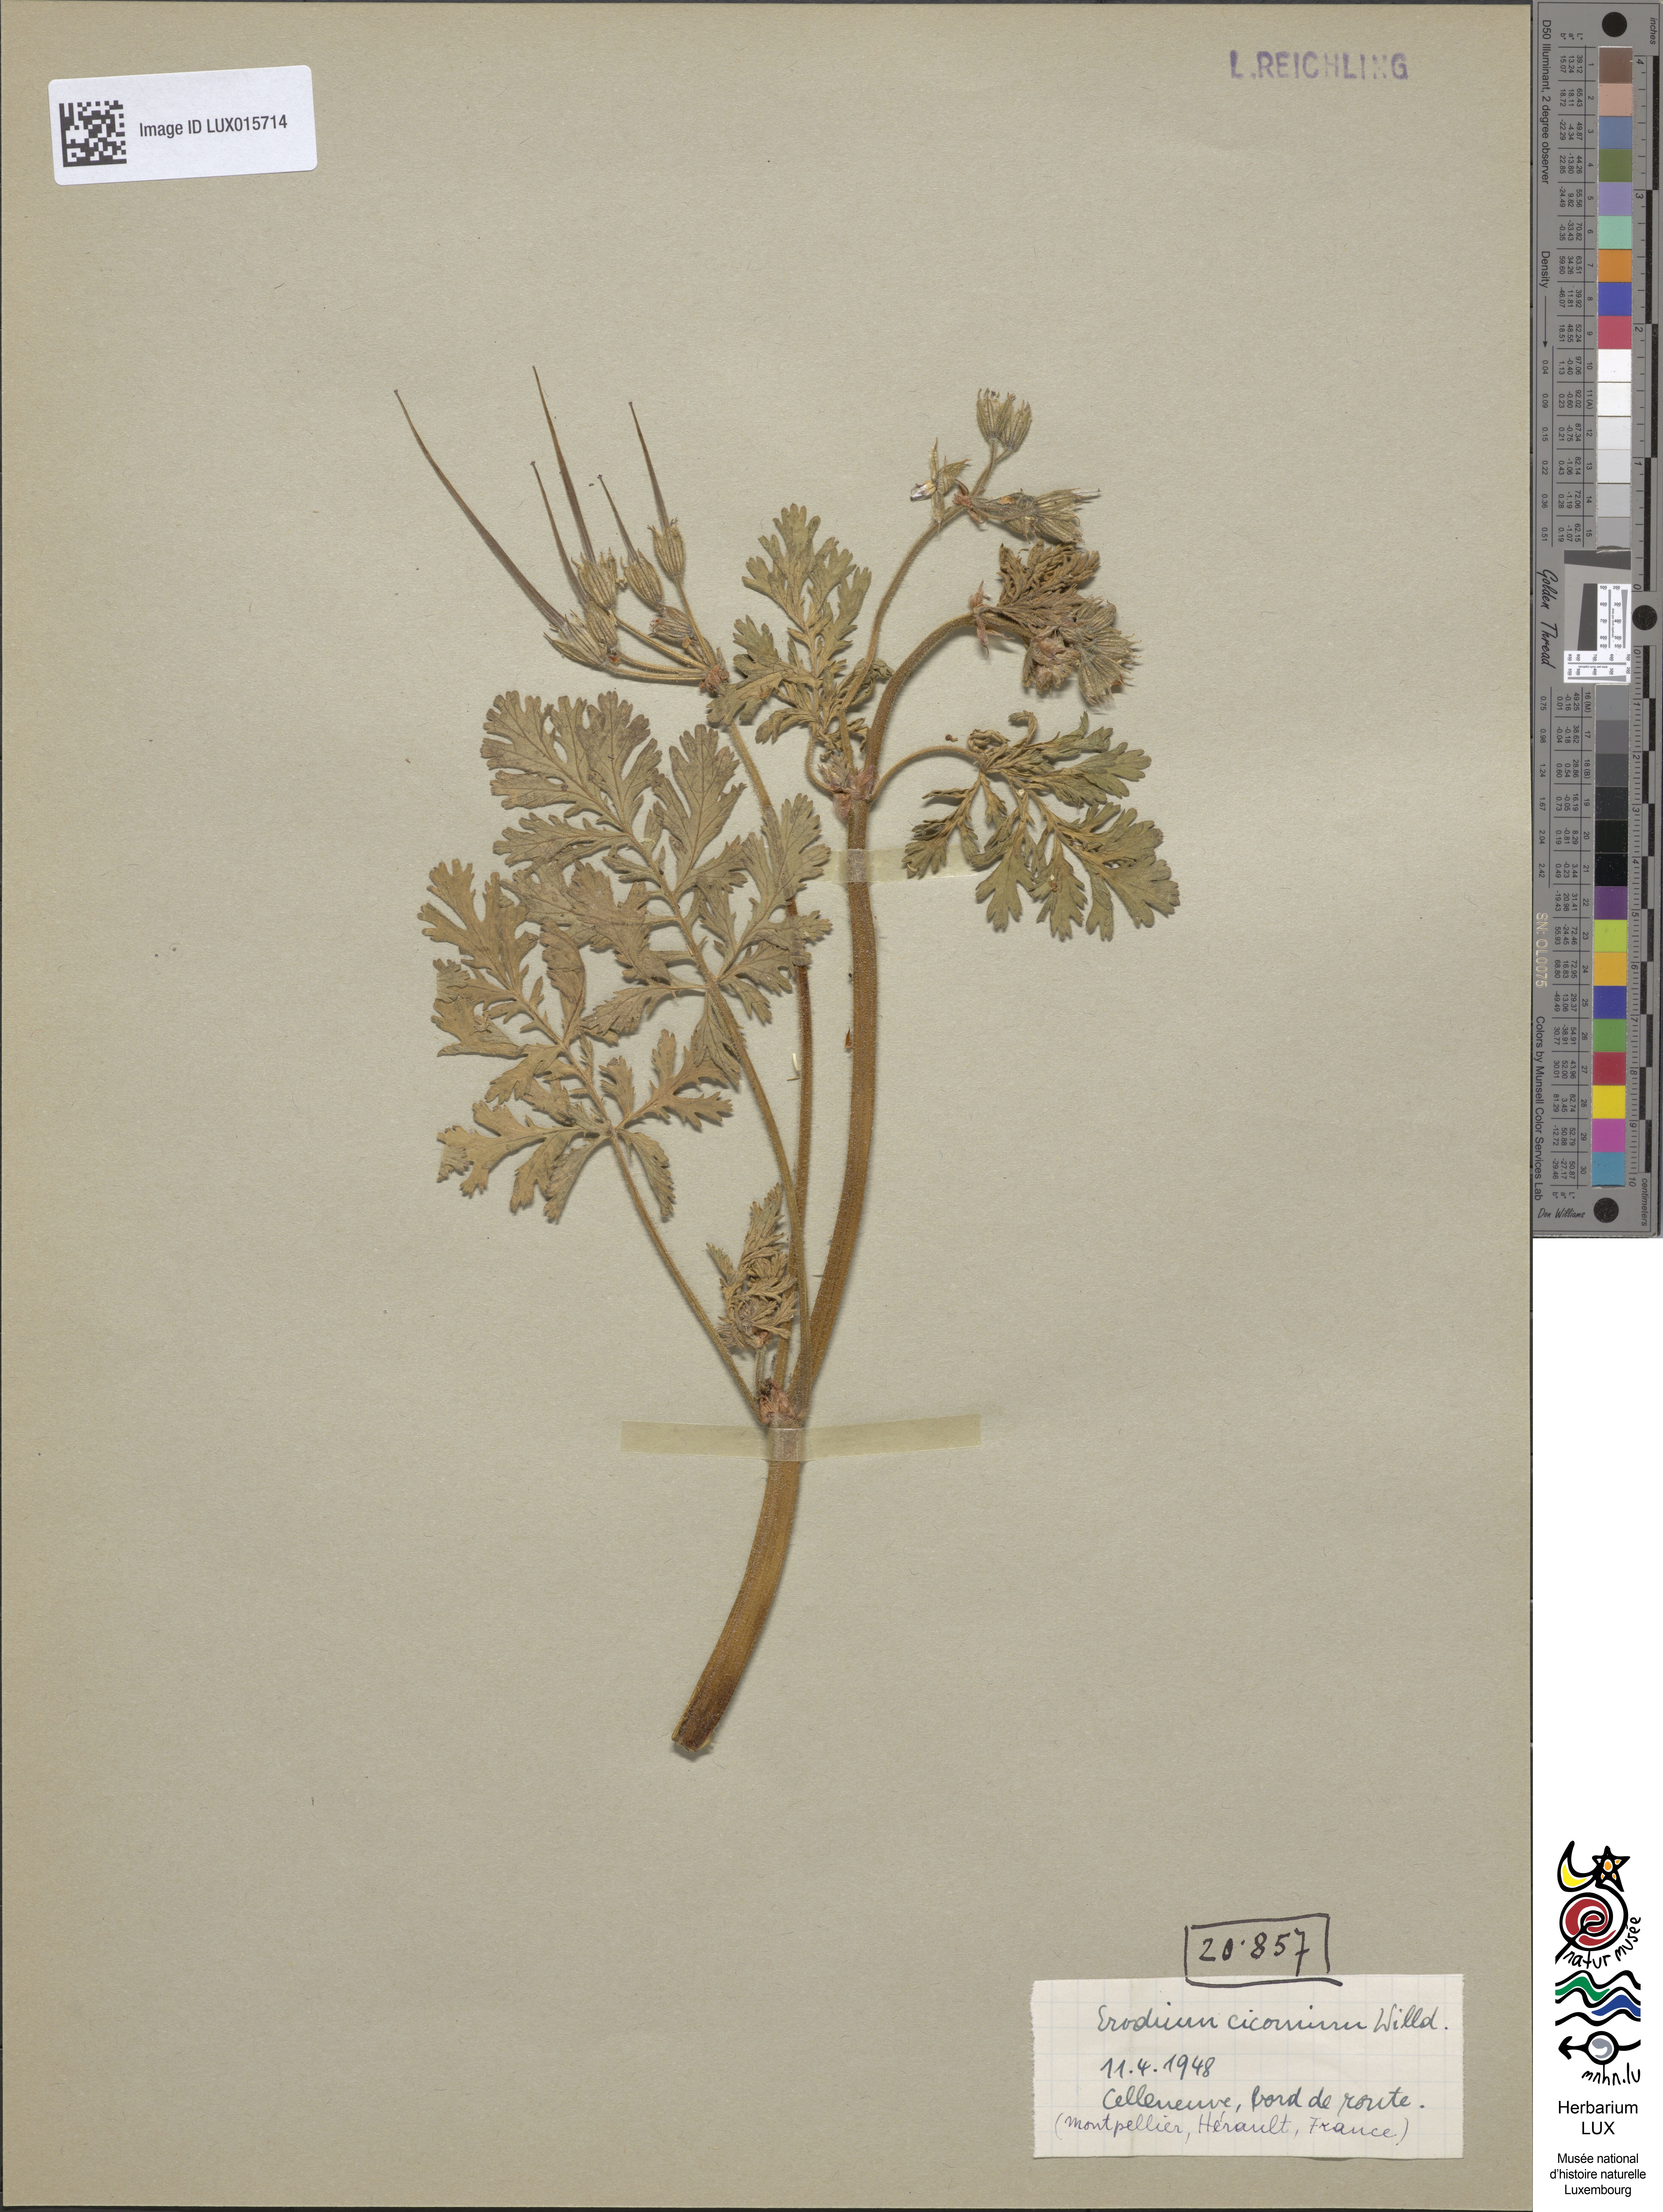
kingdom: Plantae
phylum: Tracheophyta
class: Magnoliopsida
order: Geraniales
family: Geraniaceae
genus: Erodium
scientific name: Erodium ciconium
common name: Common stork's bill
